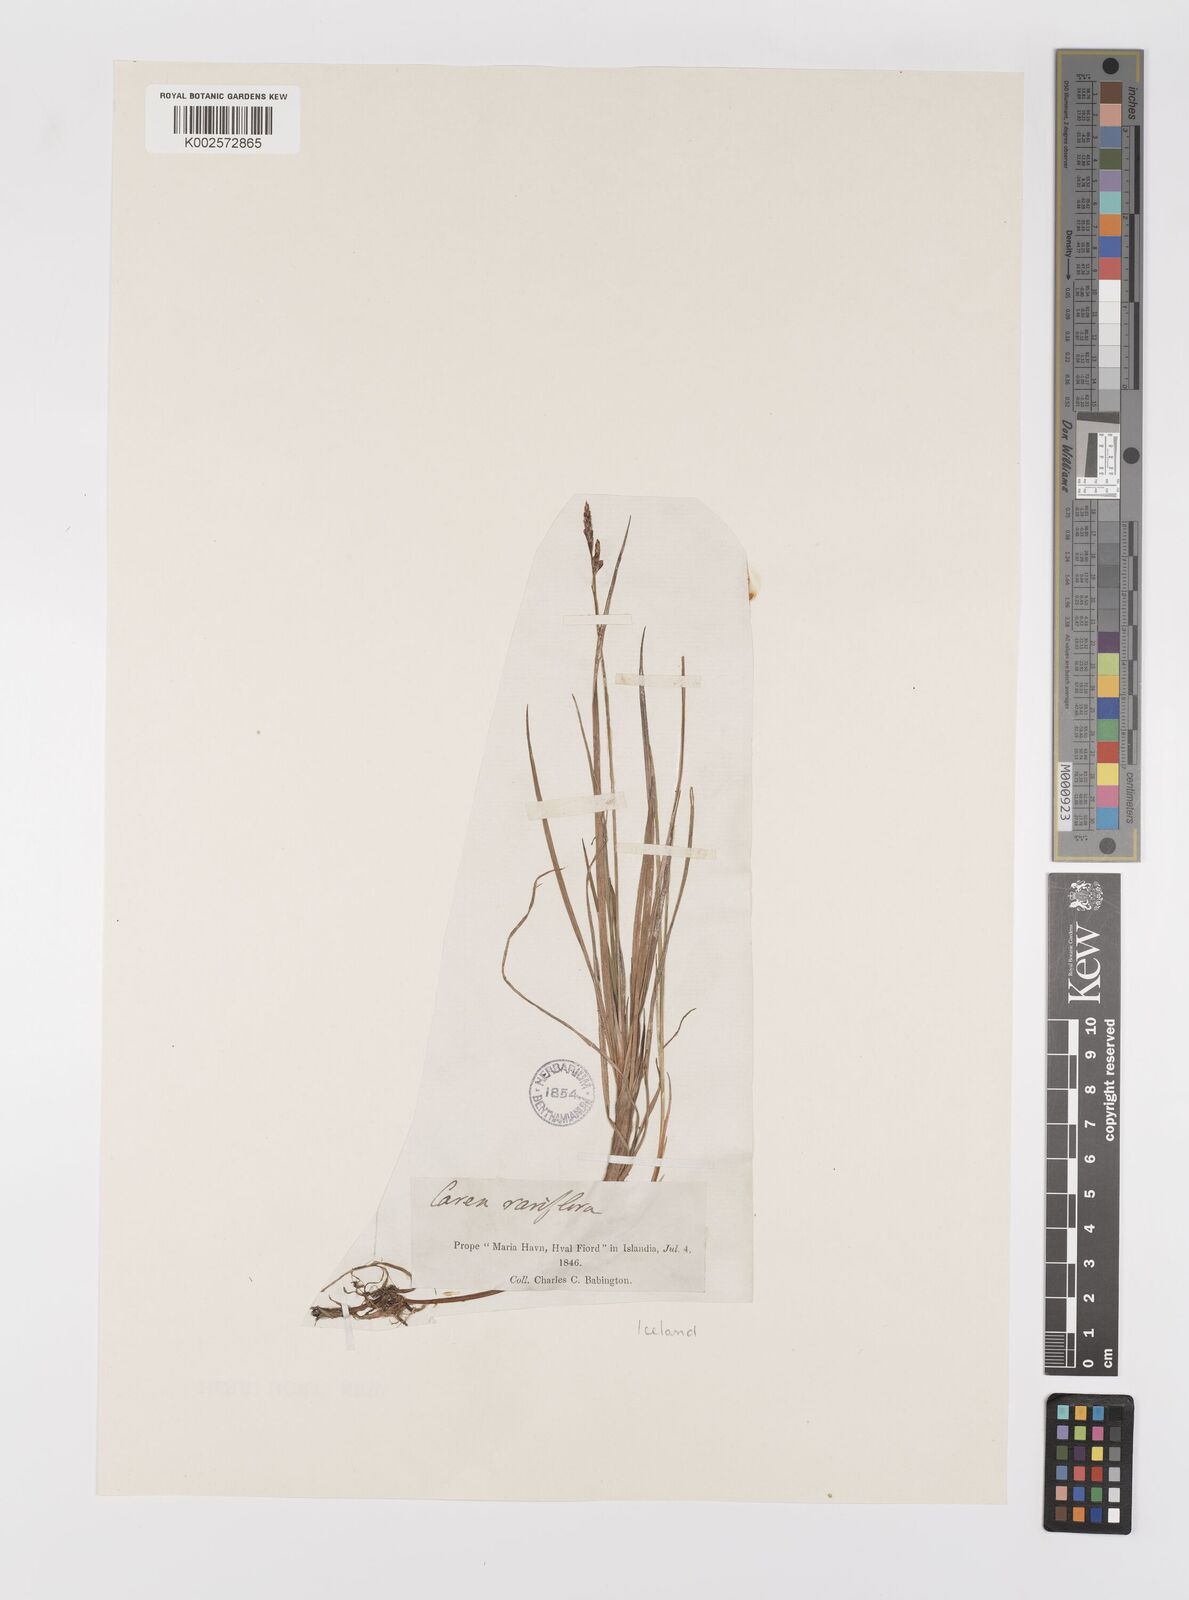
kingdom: Plantae
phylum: Tracheophyta
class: Liliopsida
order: Poales
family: Cyperaceae
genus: Carex
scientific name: Carex rariflora
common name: Loose-flowered alpine sedge
